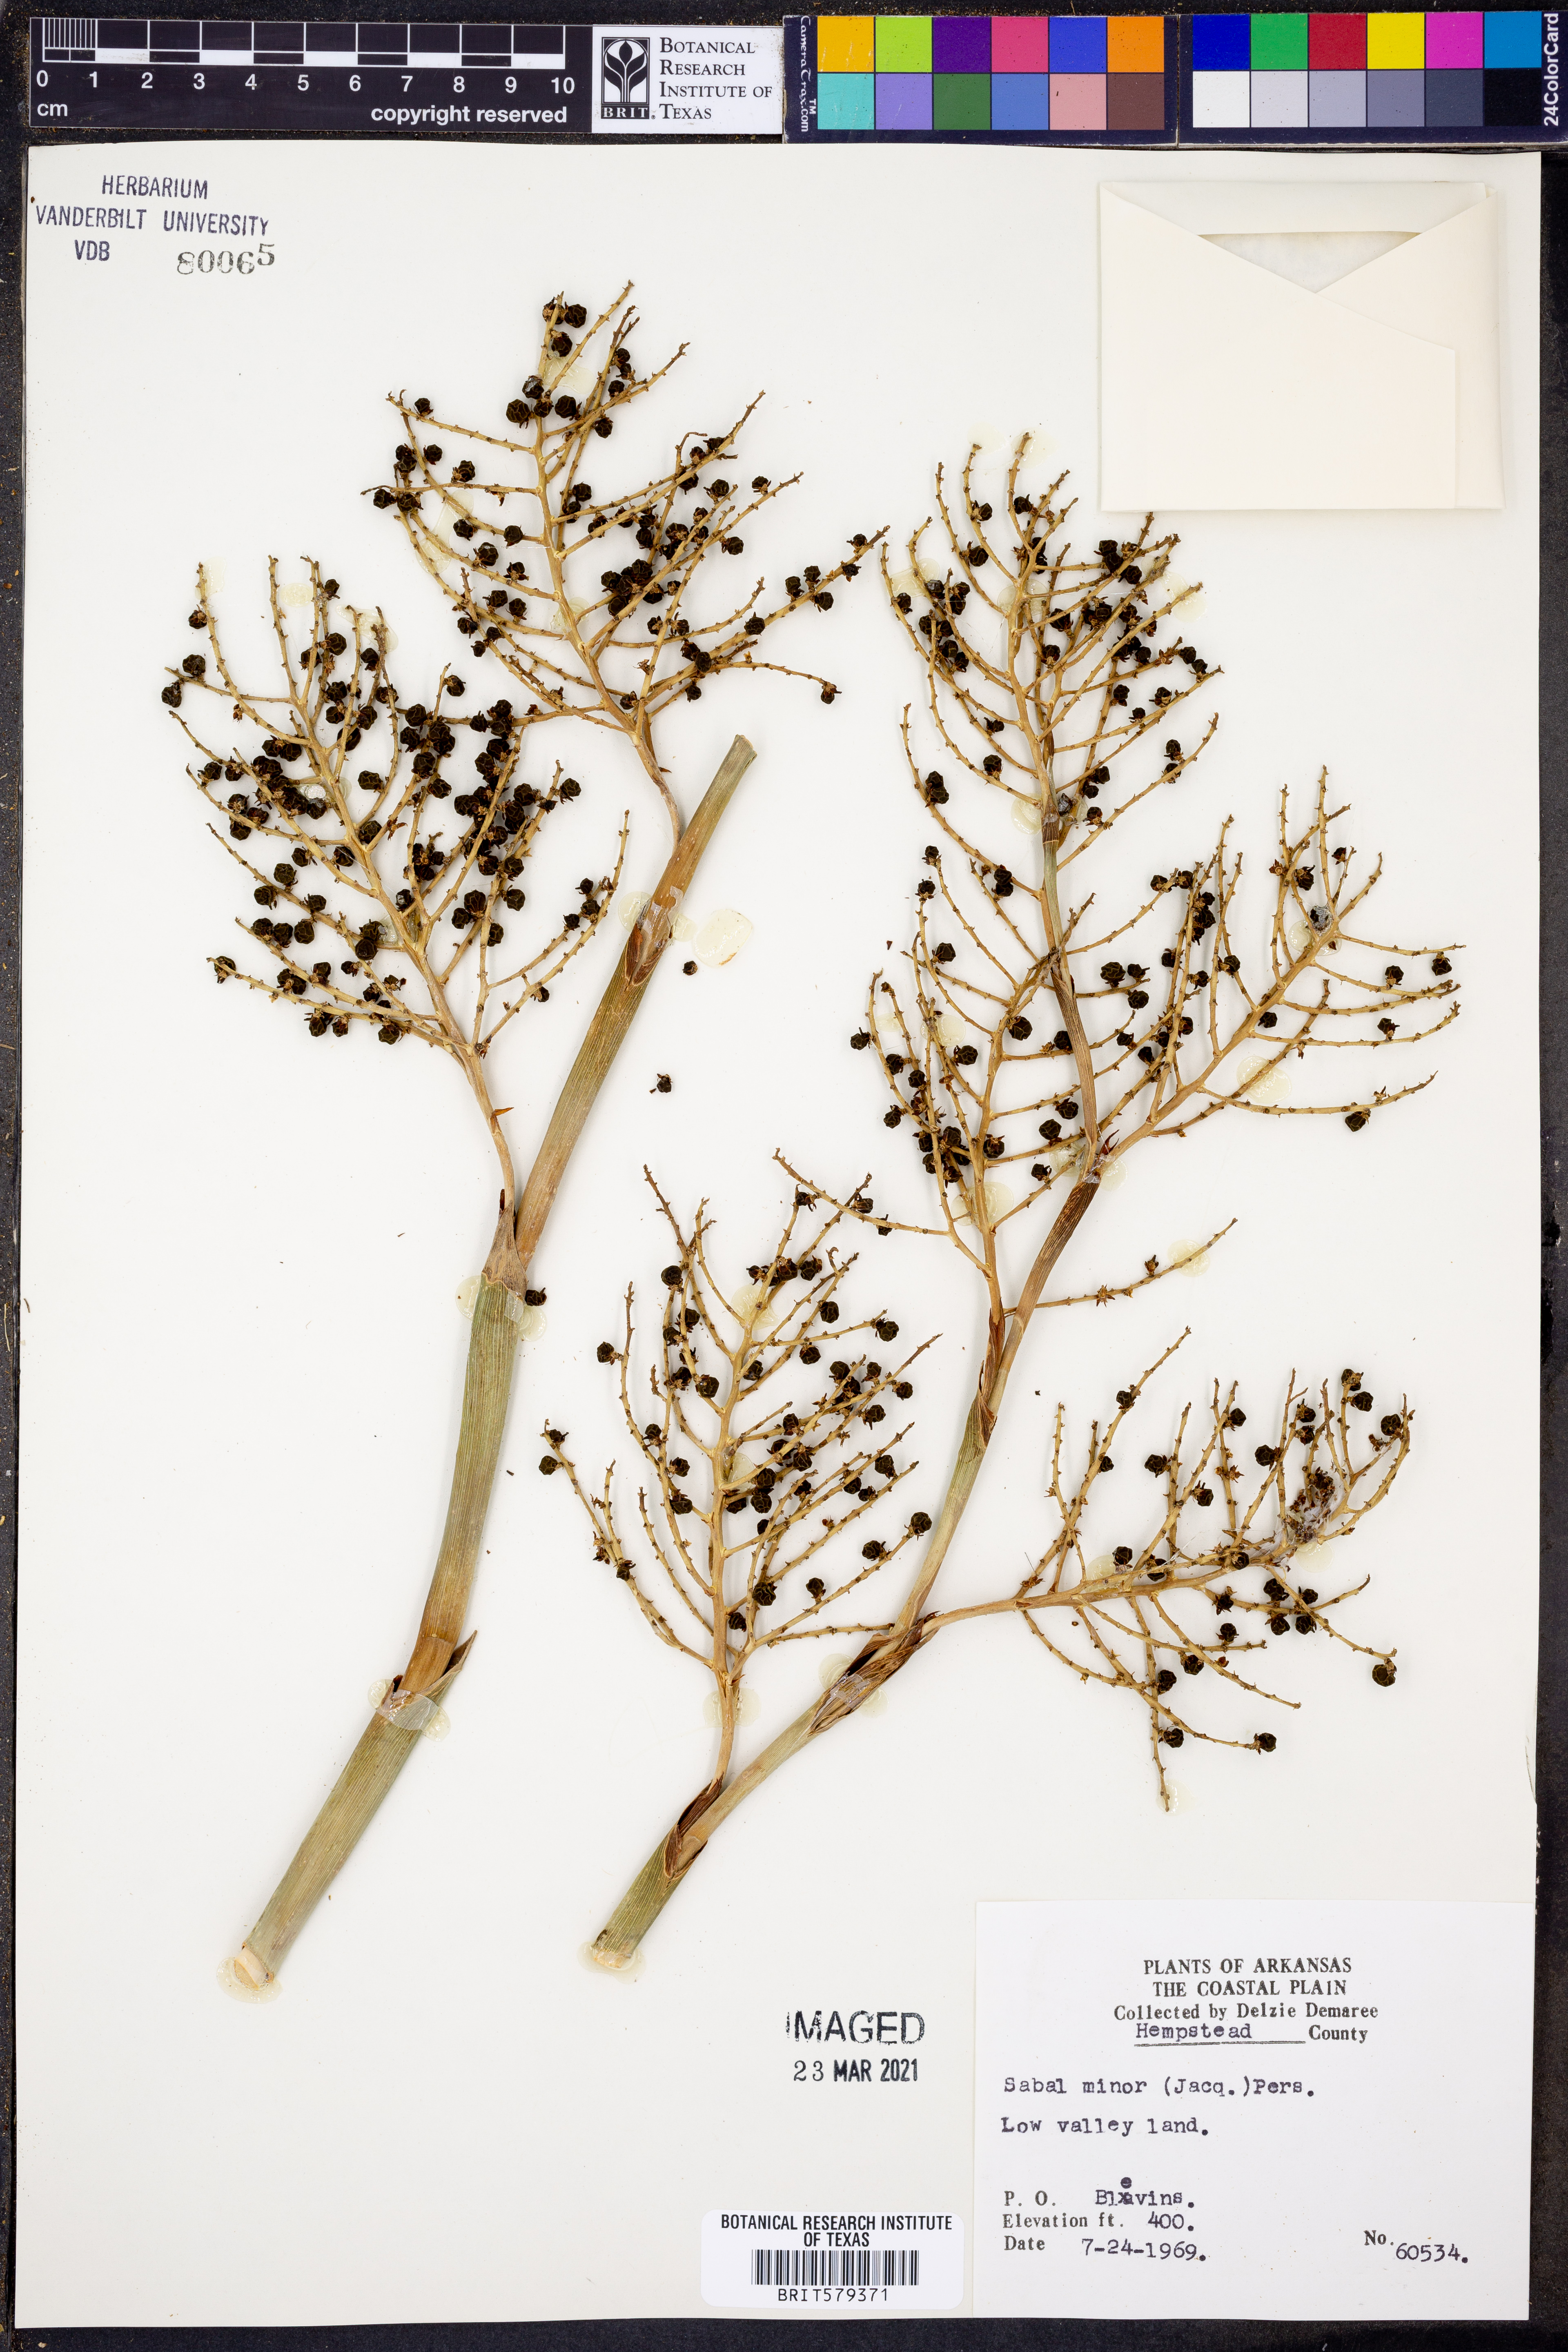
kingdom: Plantae
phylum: Tracheophyta
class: Liliopsida
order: Arecales
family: Arecaceae
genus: Sabal
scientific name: Sabal minor
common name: Dwarf palmetto
